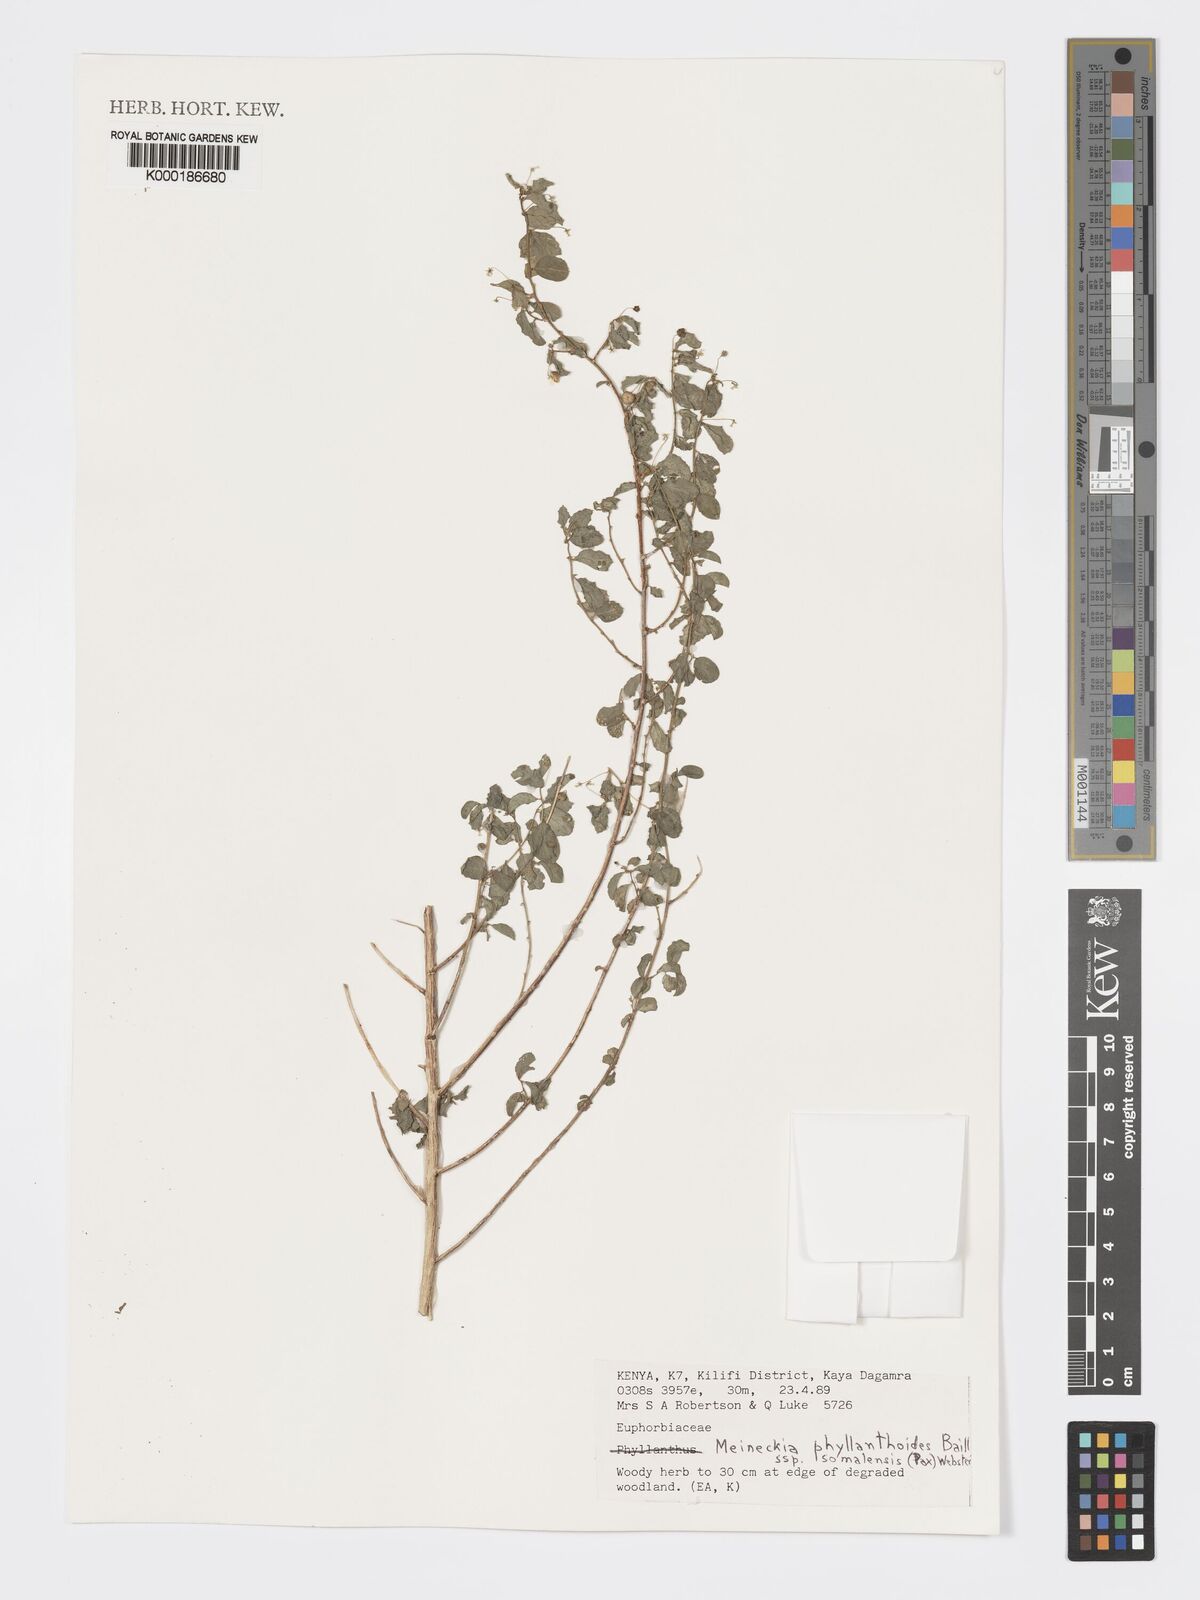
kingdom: Plantae
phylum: Tracheophyta
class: Magnoliopsida
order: Malpighiales
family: Phyllanthaceae
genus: Meineckia
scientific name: Meineckia phyllanthoides
